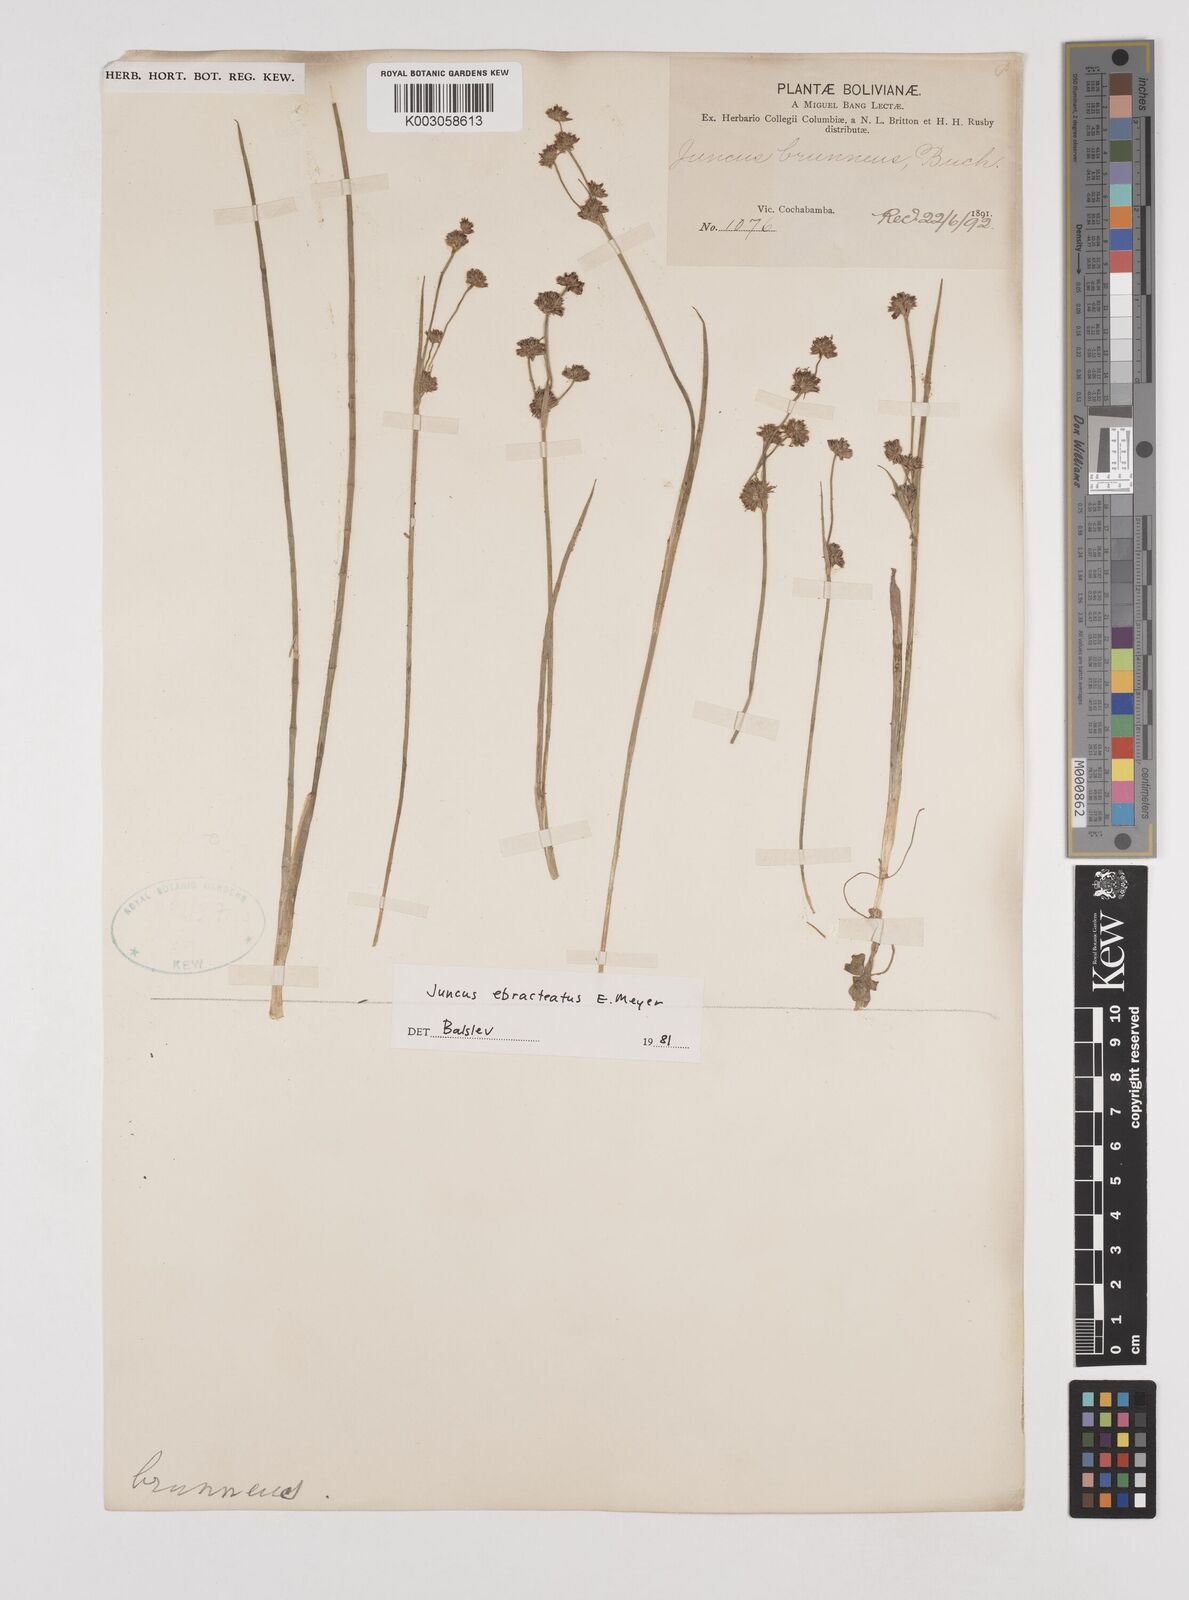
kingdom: Plantae
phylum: Tracheophyta
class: Liliopsida
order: Poales
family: Juncaceae
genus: Juncus
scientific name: Juncus ebracteatus
